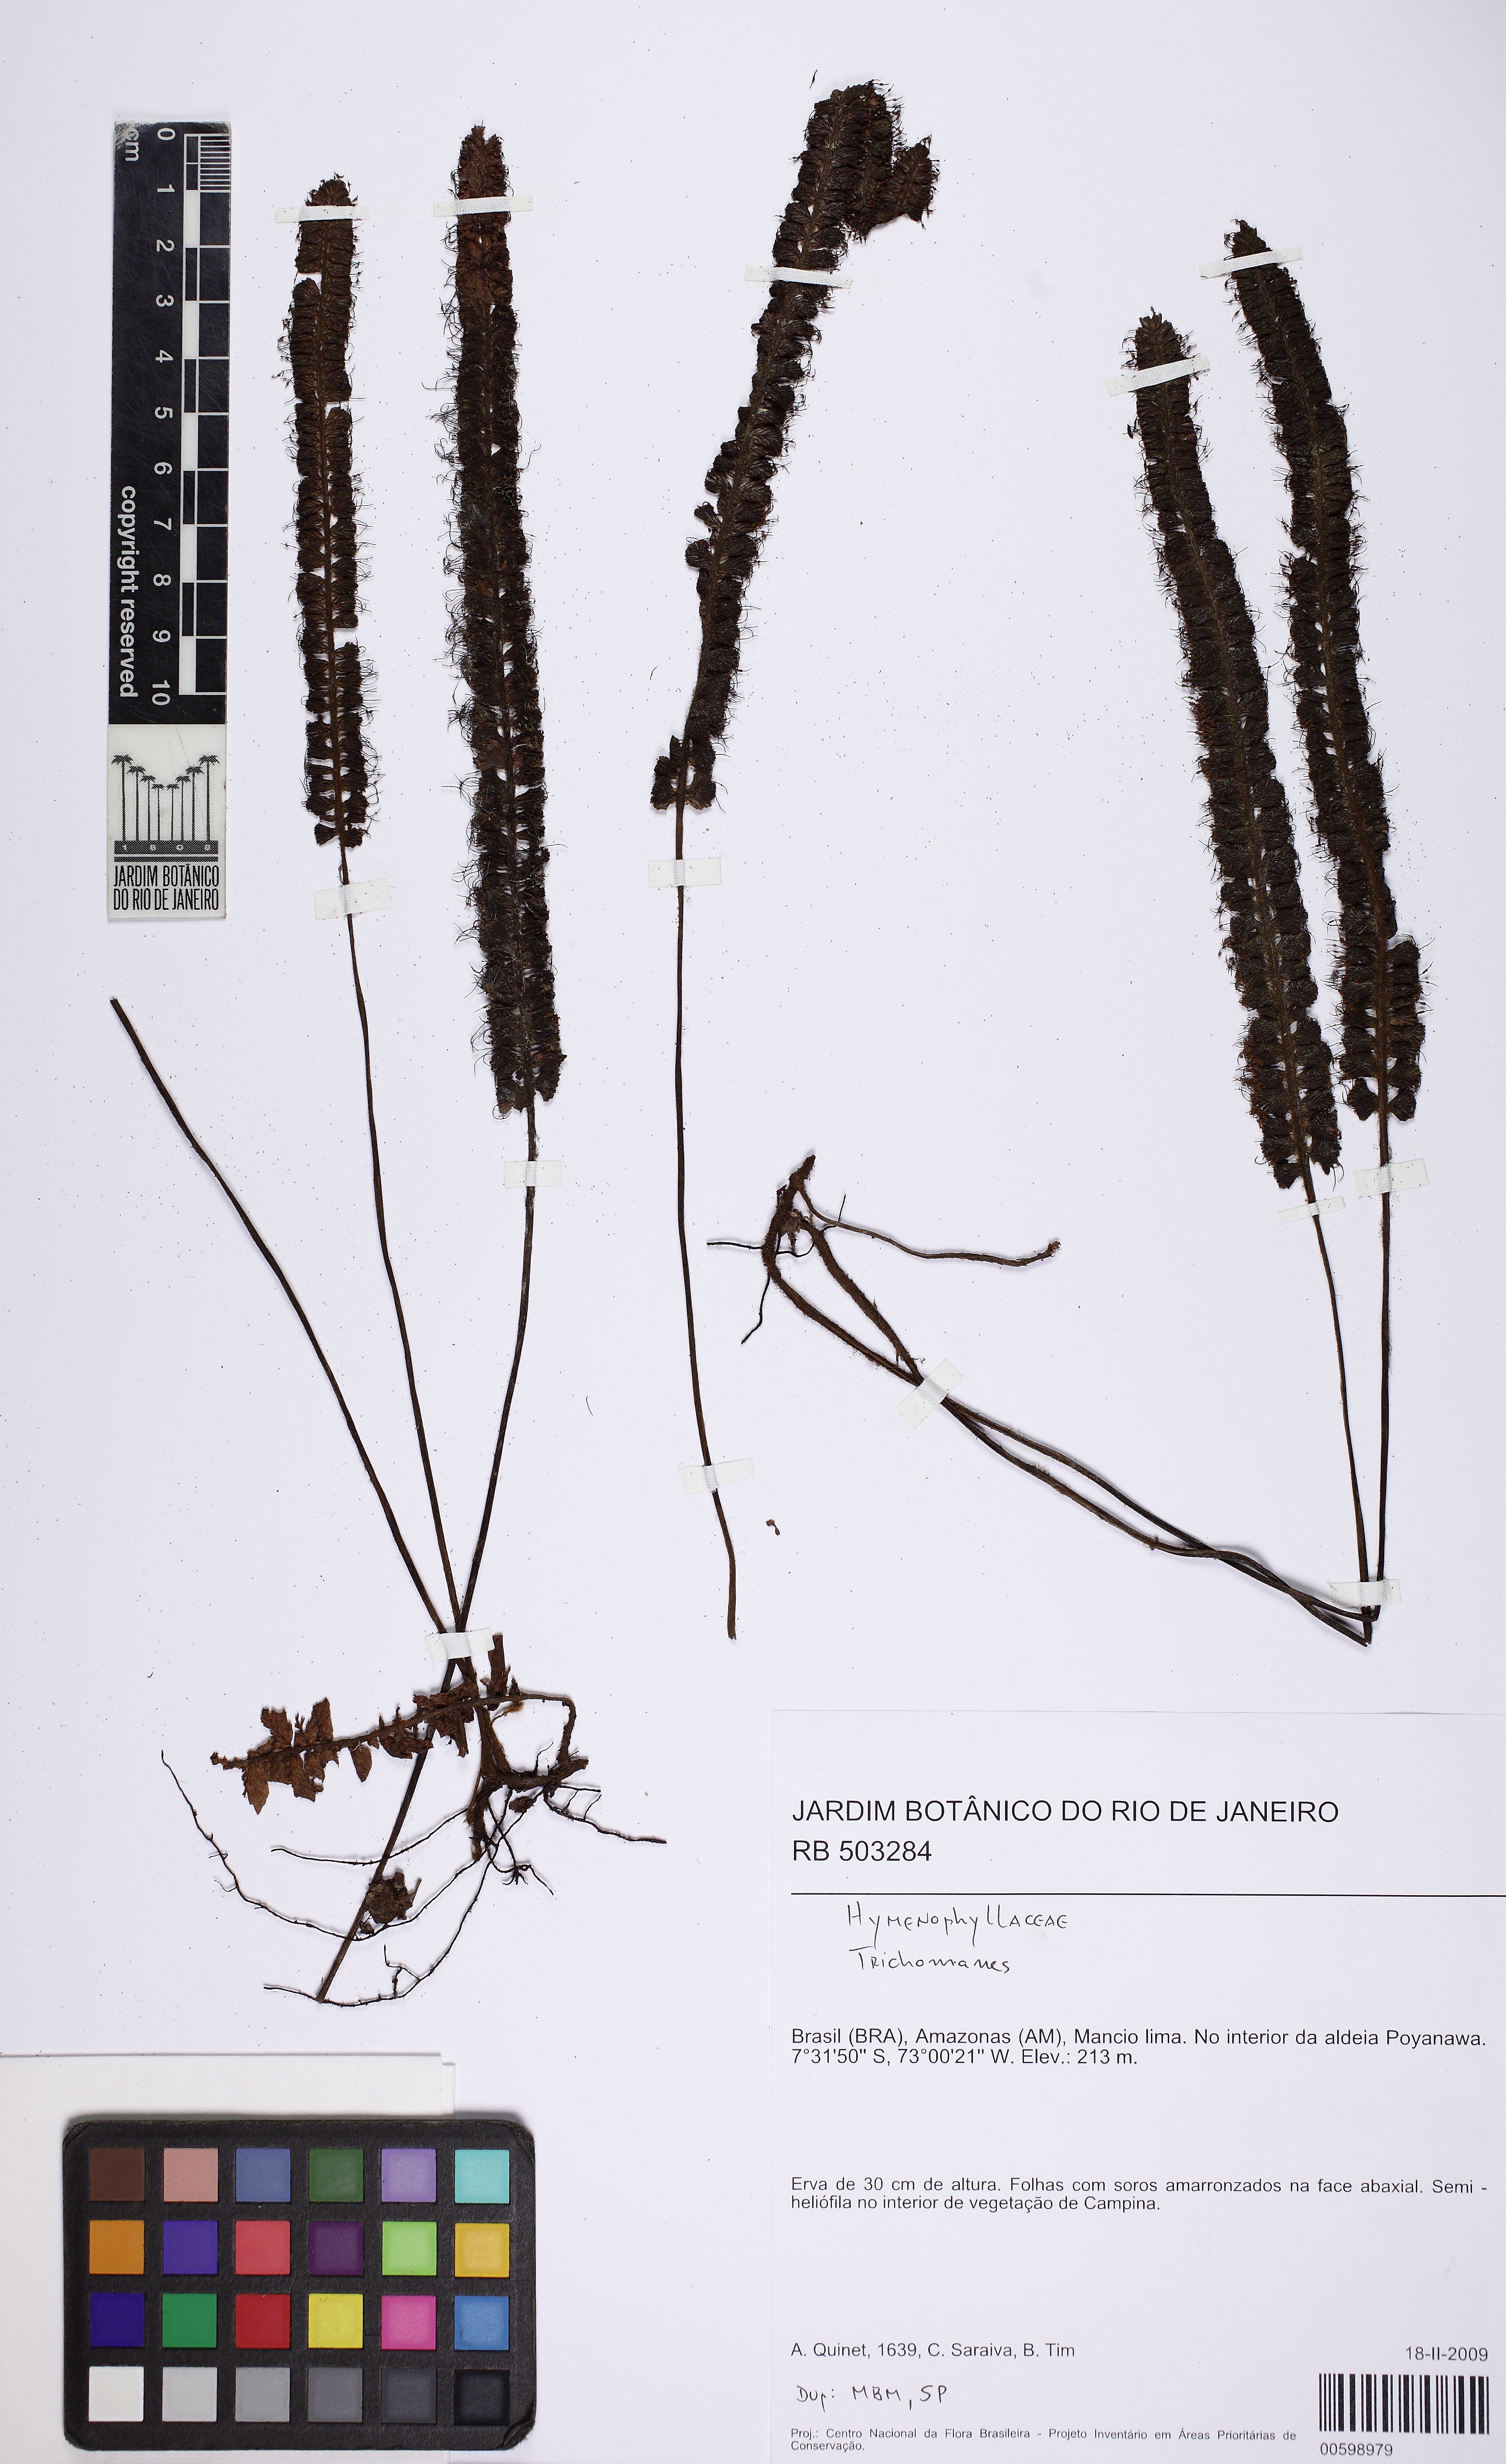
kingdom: Plantae
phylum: Tracheophyta
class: Polypodiopsida
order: Hymenophyllales
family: Hymenophyllaceae
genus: Trichomanes
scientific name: Trichomanes humboldtii
